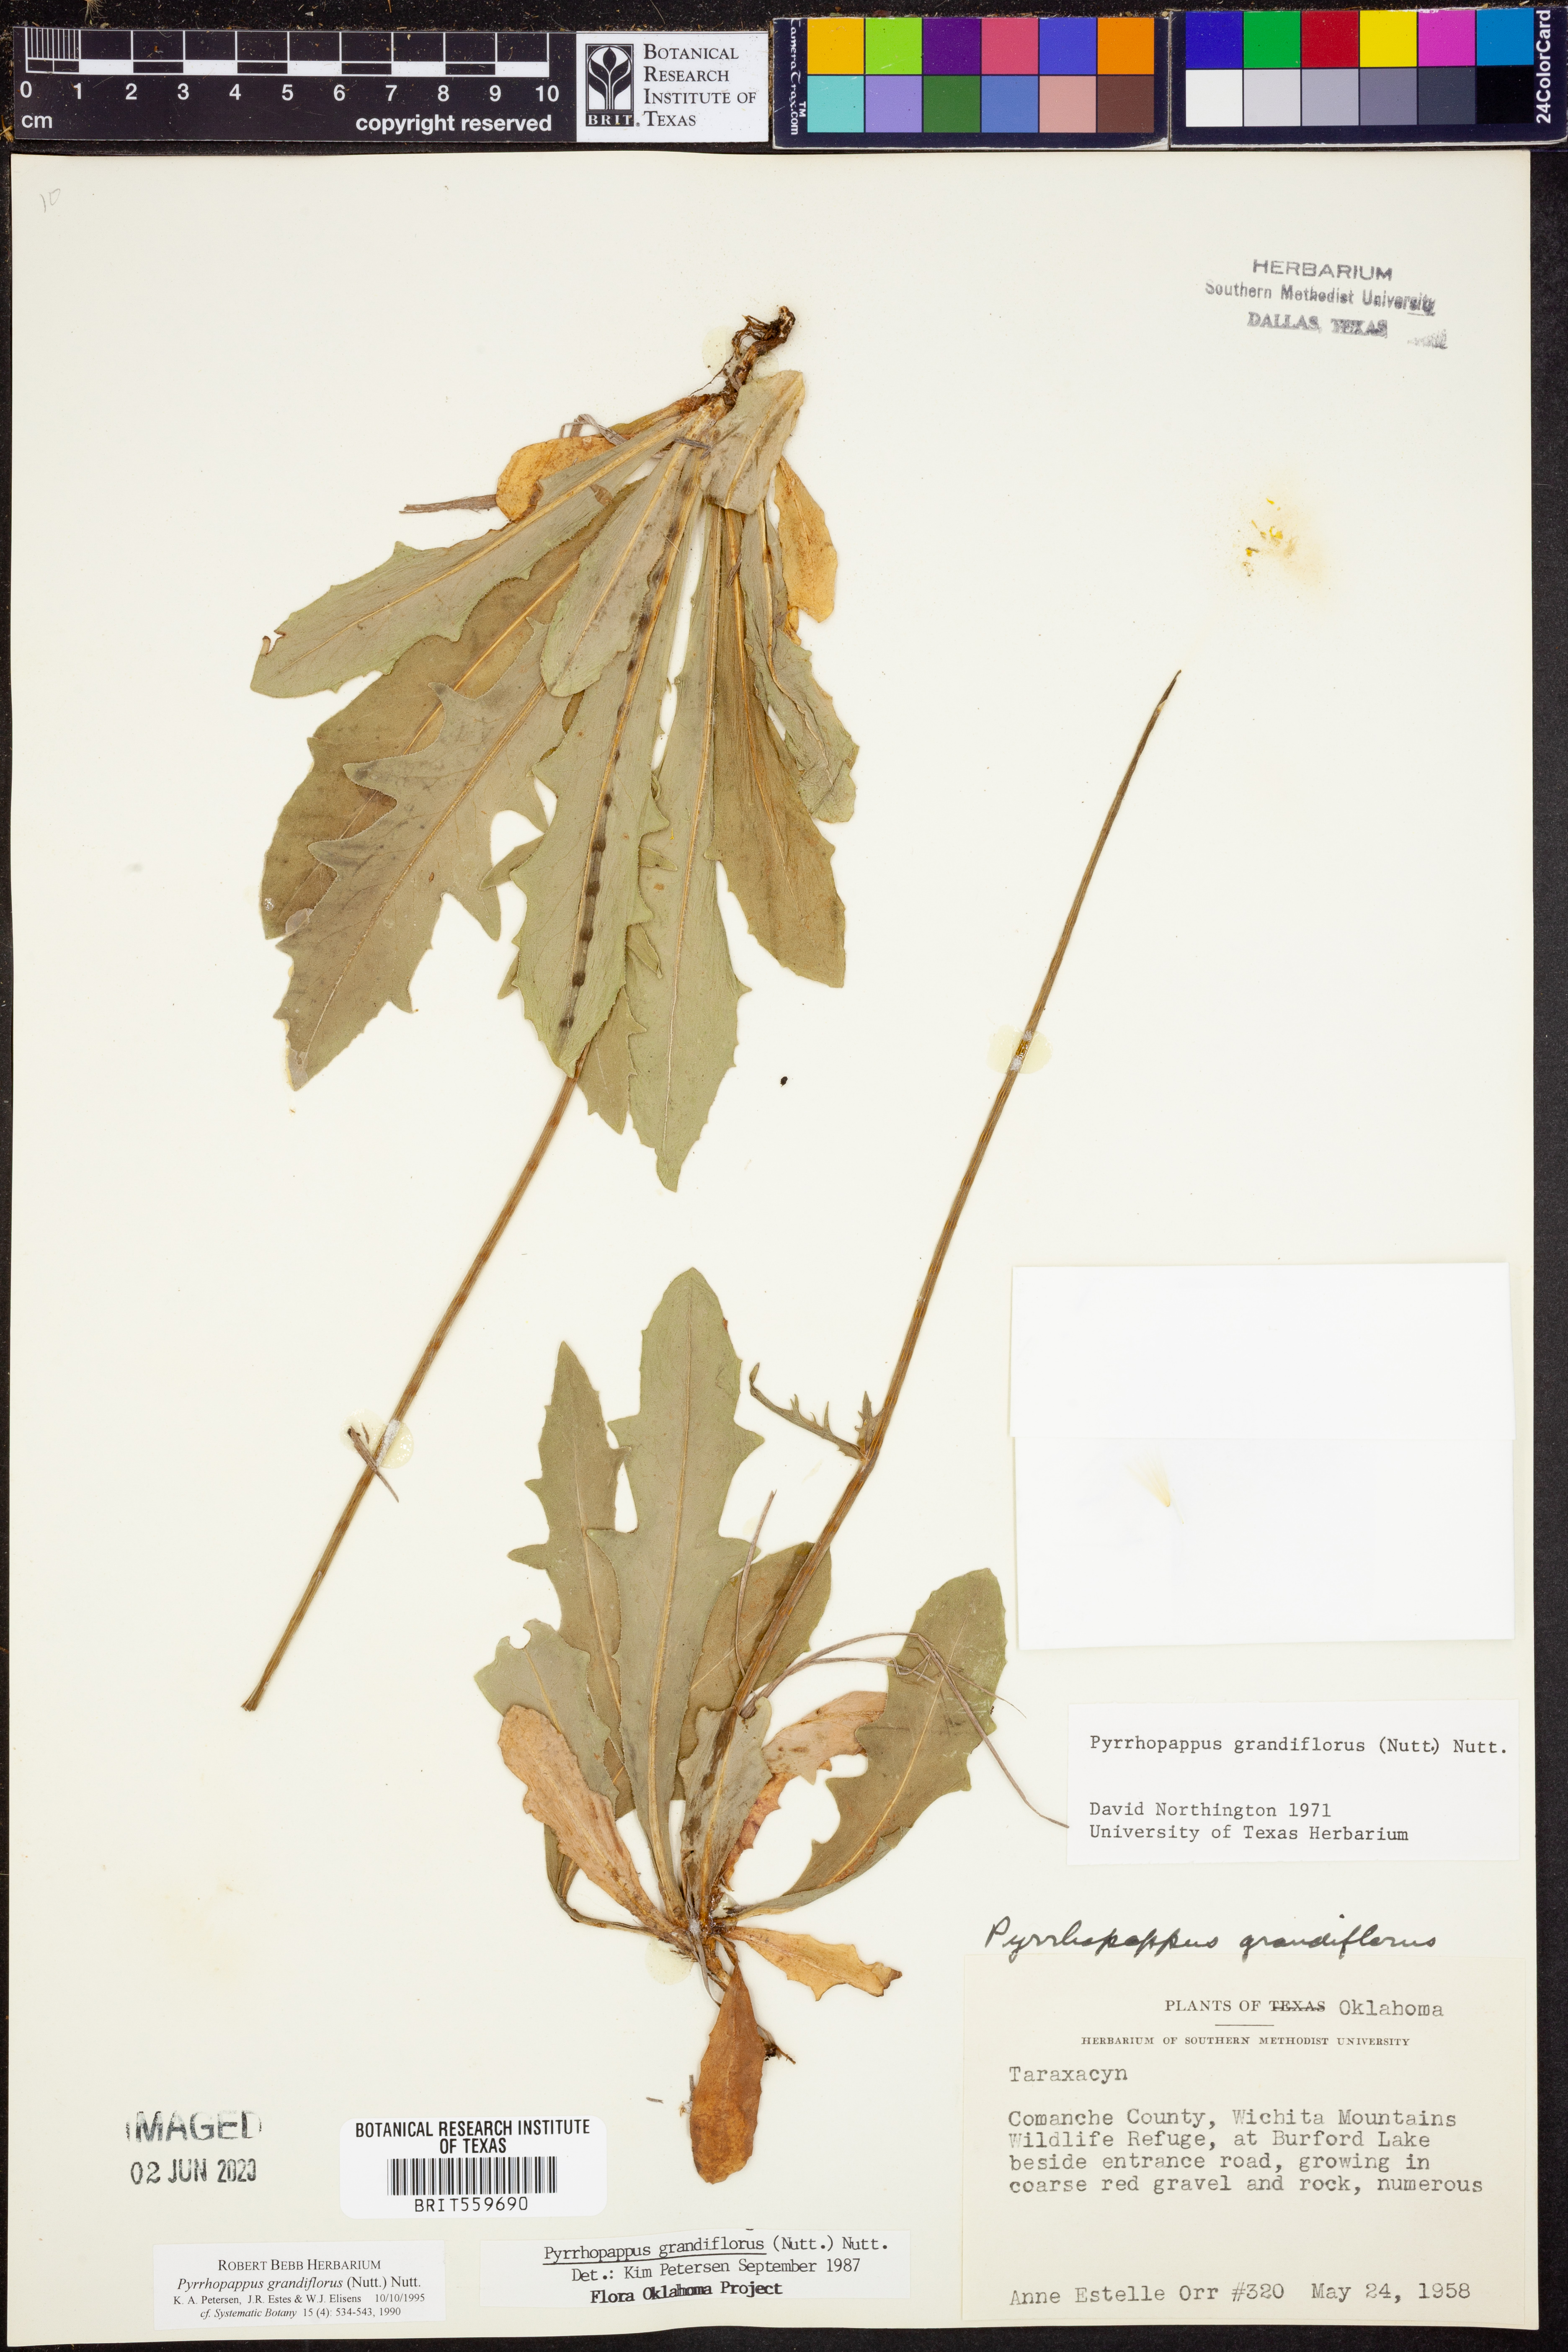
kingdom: Plantae
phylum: Tracheophyta
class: Magnoliopsida
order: Asterales
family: Asteraceae
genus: Pyrrhopappus
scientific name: Pyrrhopappus grandiflorus
